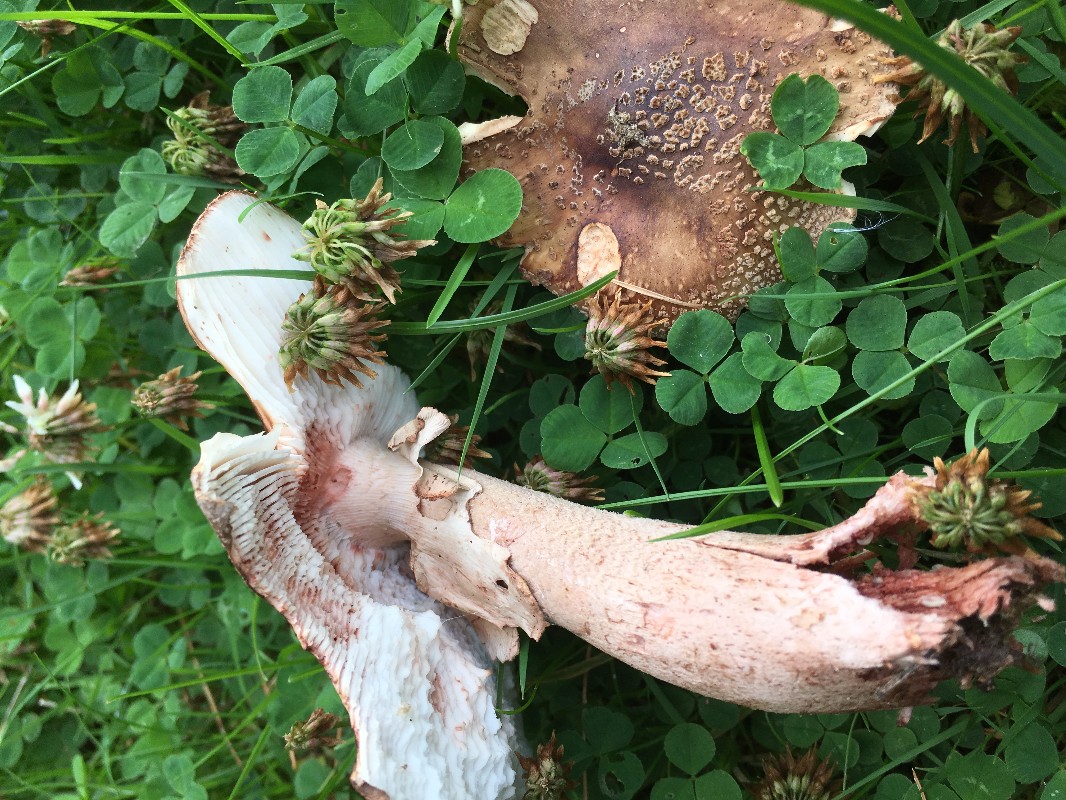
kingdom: Fungi
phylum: Basidiomycota
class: Agaricomycetes
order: Agaricales
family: Amanitaceae
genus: Amanita
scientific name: Amanita rubescens
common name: rødmende fluesvamp
